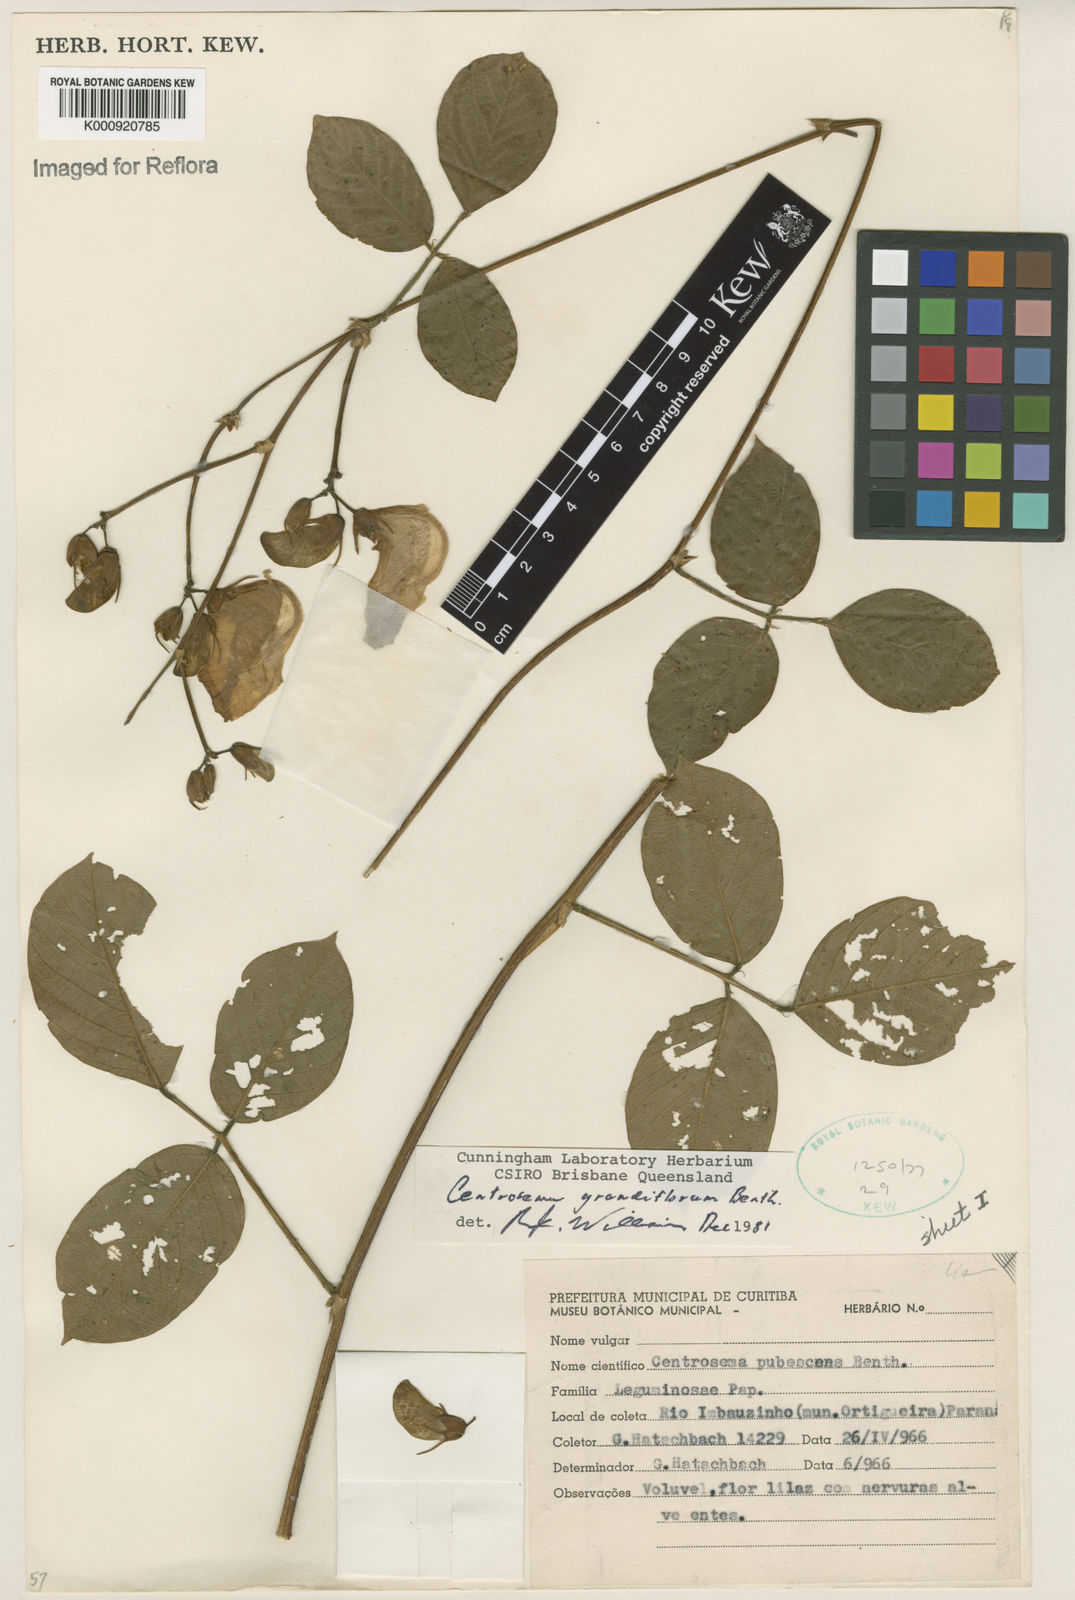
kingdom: Plantae
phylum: Tracheophyta
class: Magnoliopsida
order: Fabales
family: Fabaceae
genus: Centrosema
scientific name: Centrosema grandiflorum
